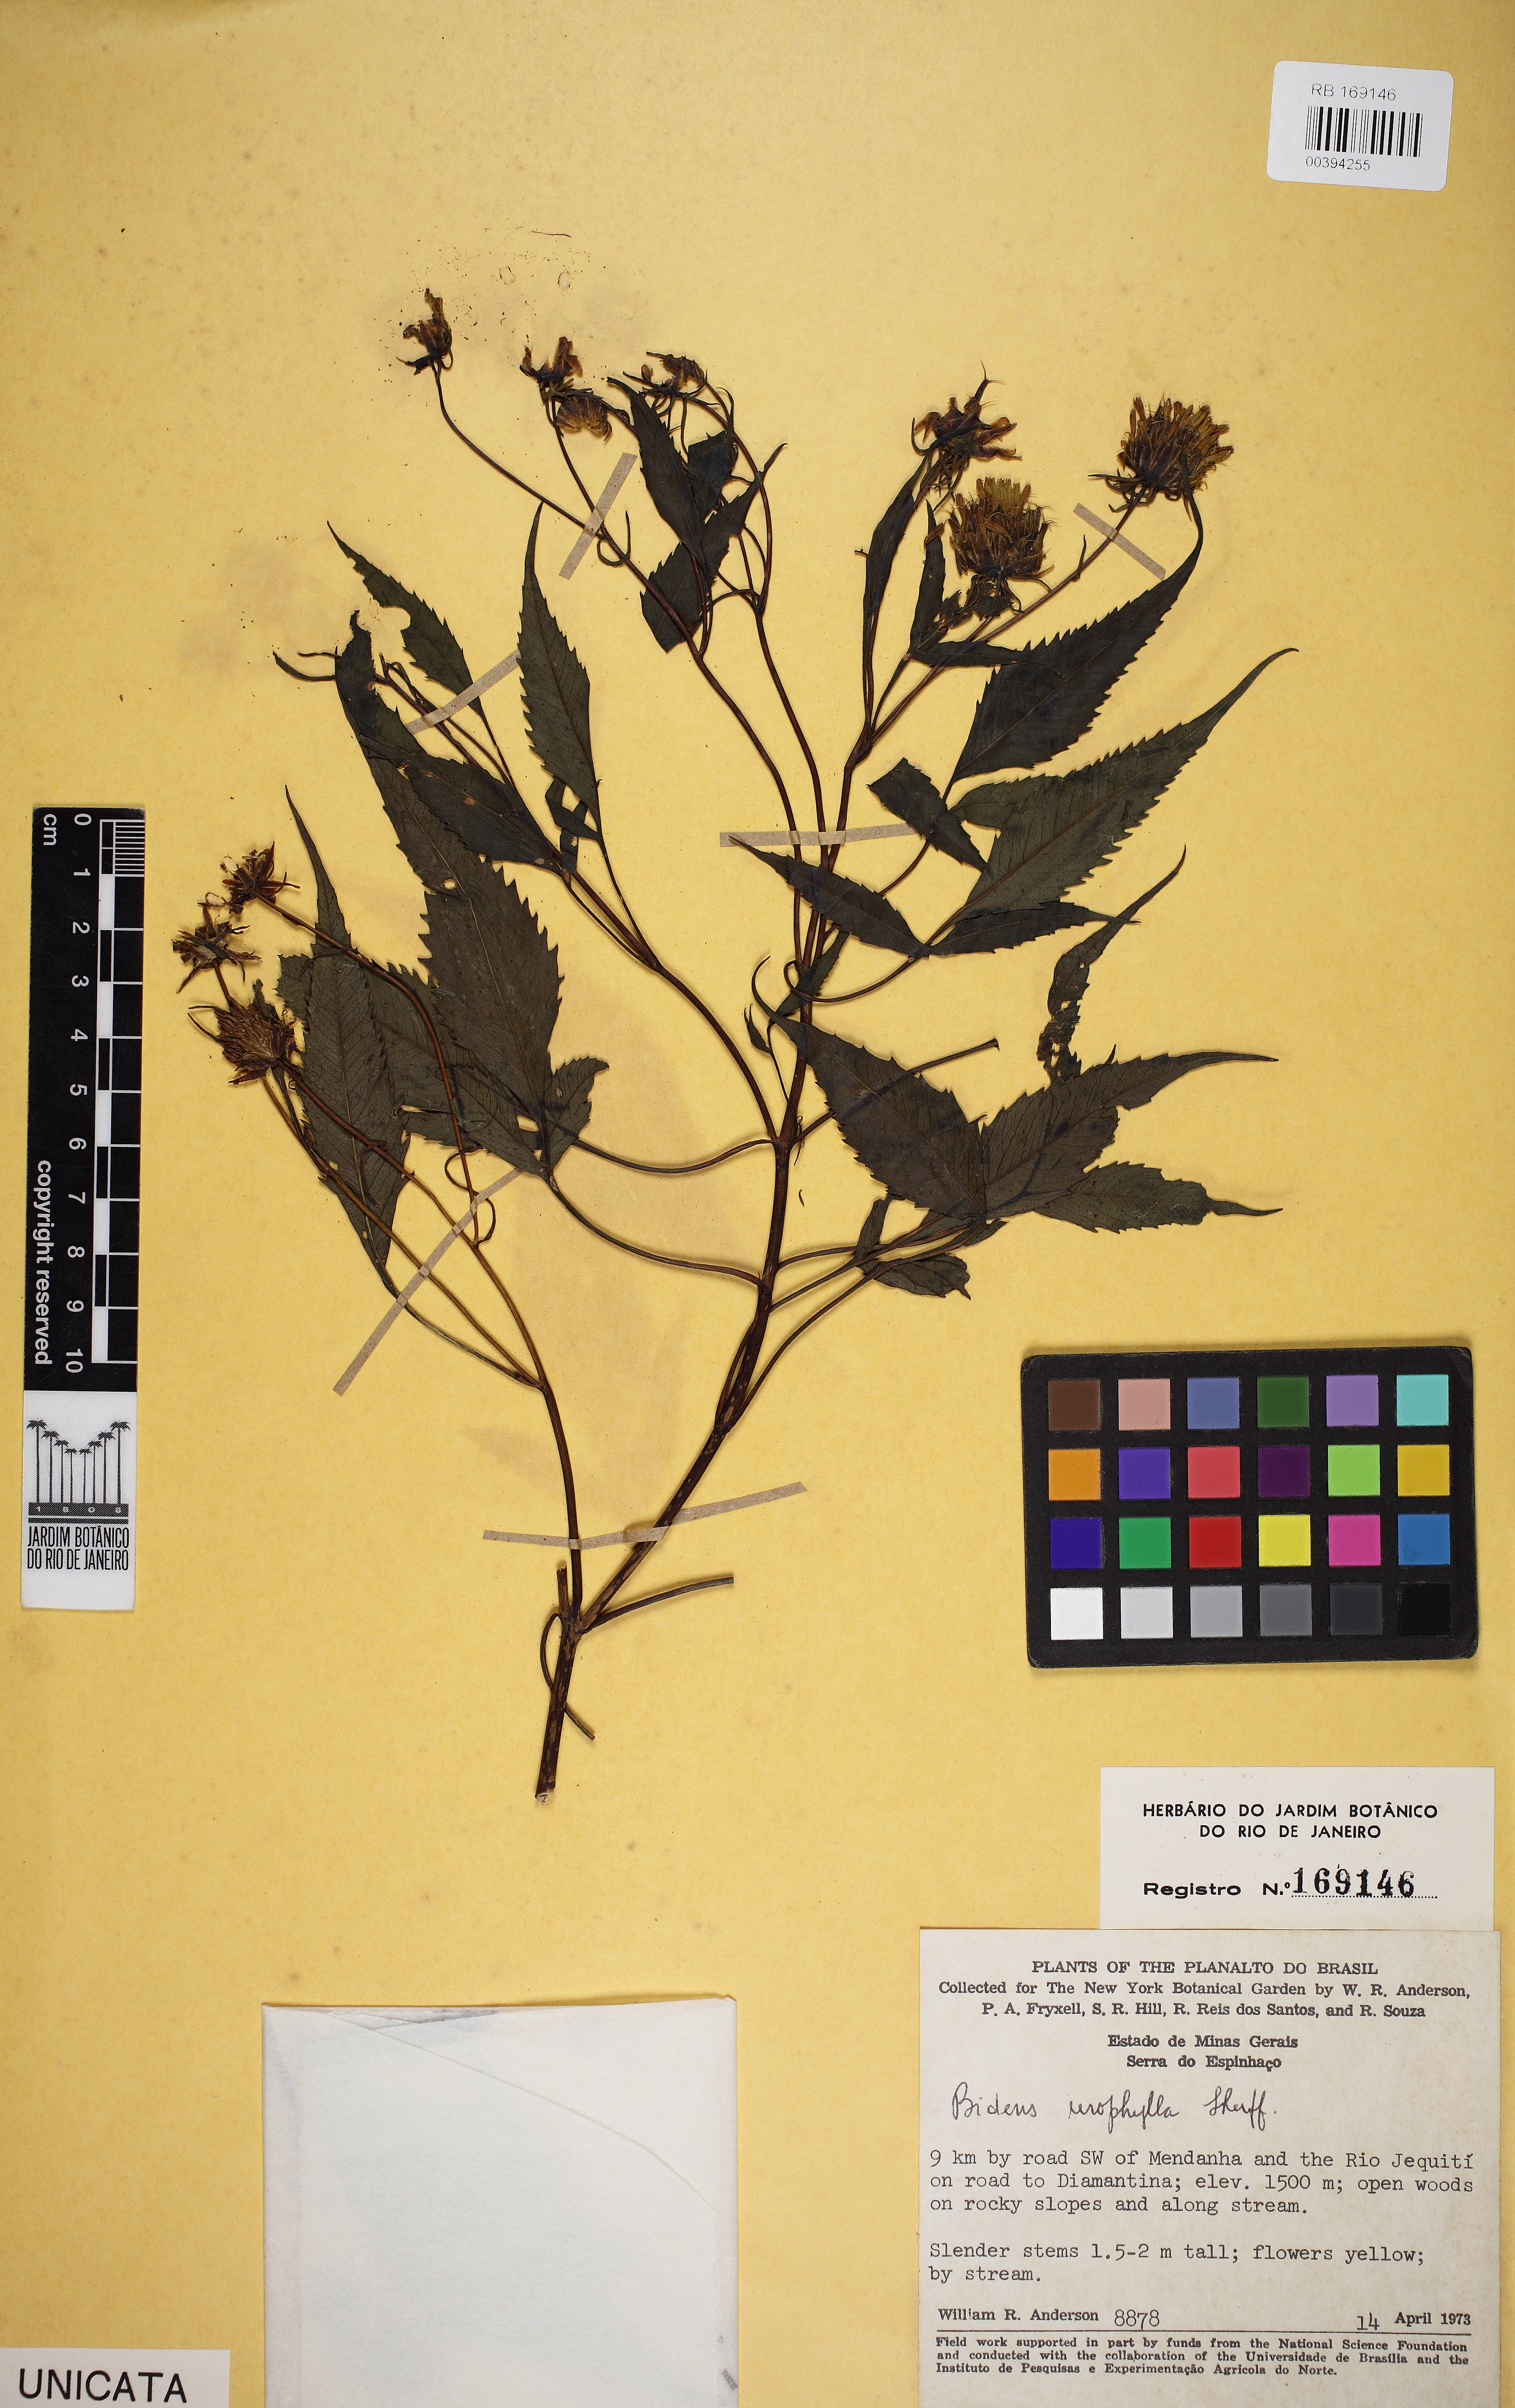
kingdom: Plantae
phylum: Tracheophyta
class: Magnoliopsida
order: Asterales
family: Asteraceae
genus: Bidens
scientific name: Bidens urophylla
